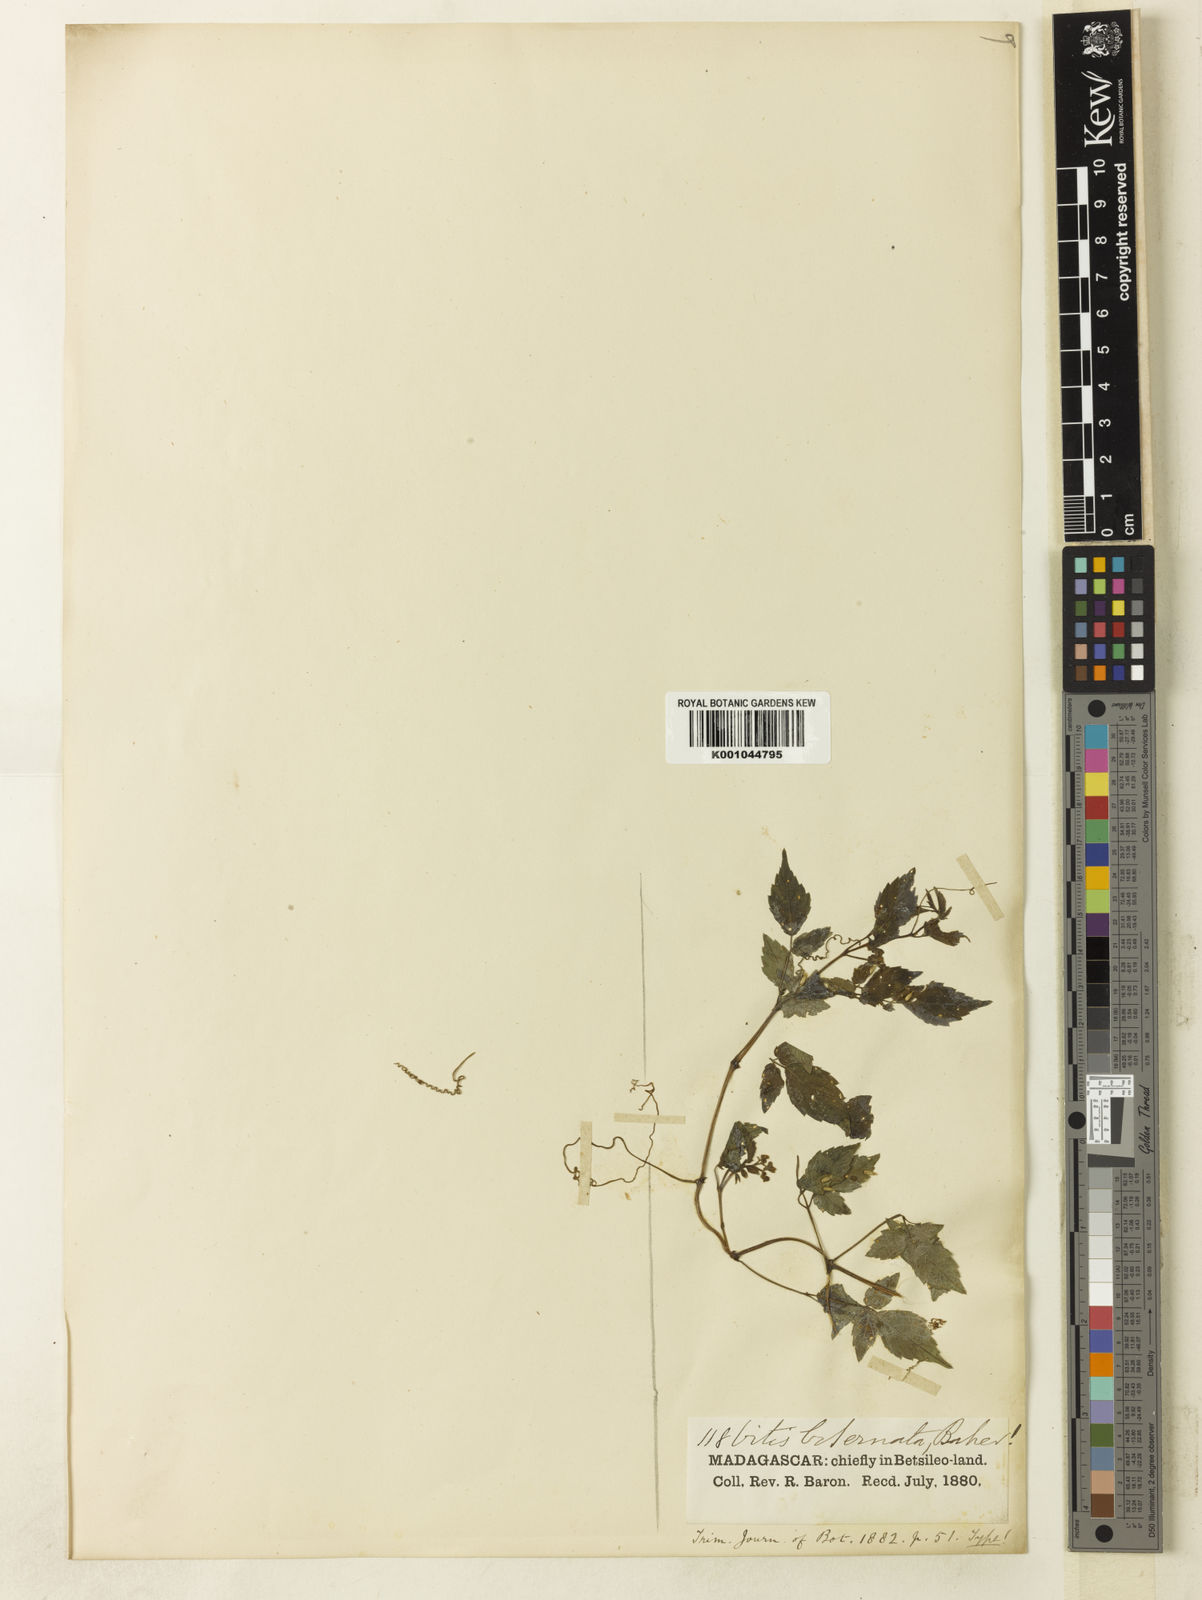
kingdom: Plantae
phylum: Tracheophyta
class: Magnoliopsida
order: Vitales
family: Vitaceae
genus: Cyphostemma
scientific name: Cyphostemma microdipterum
